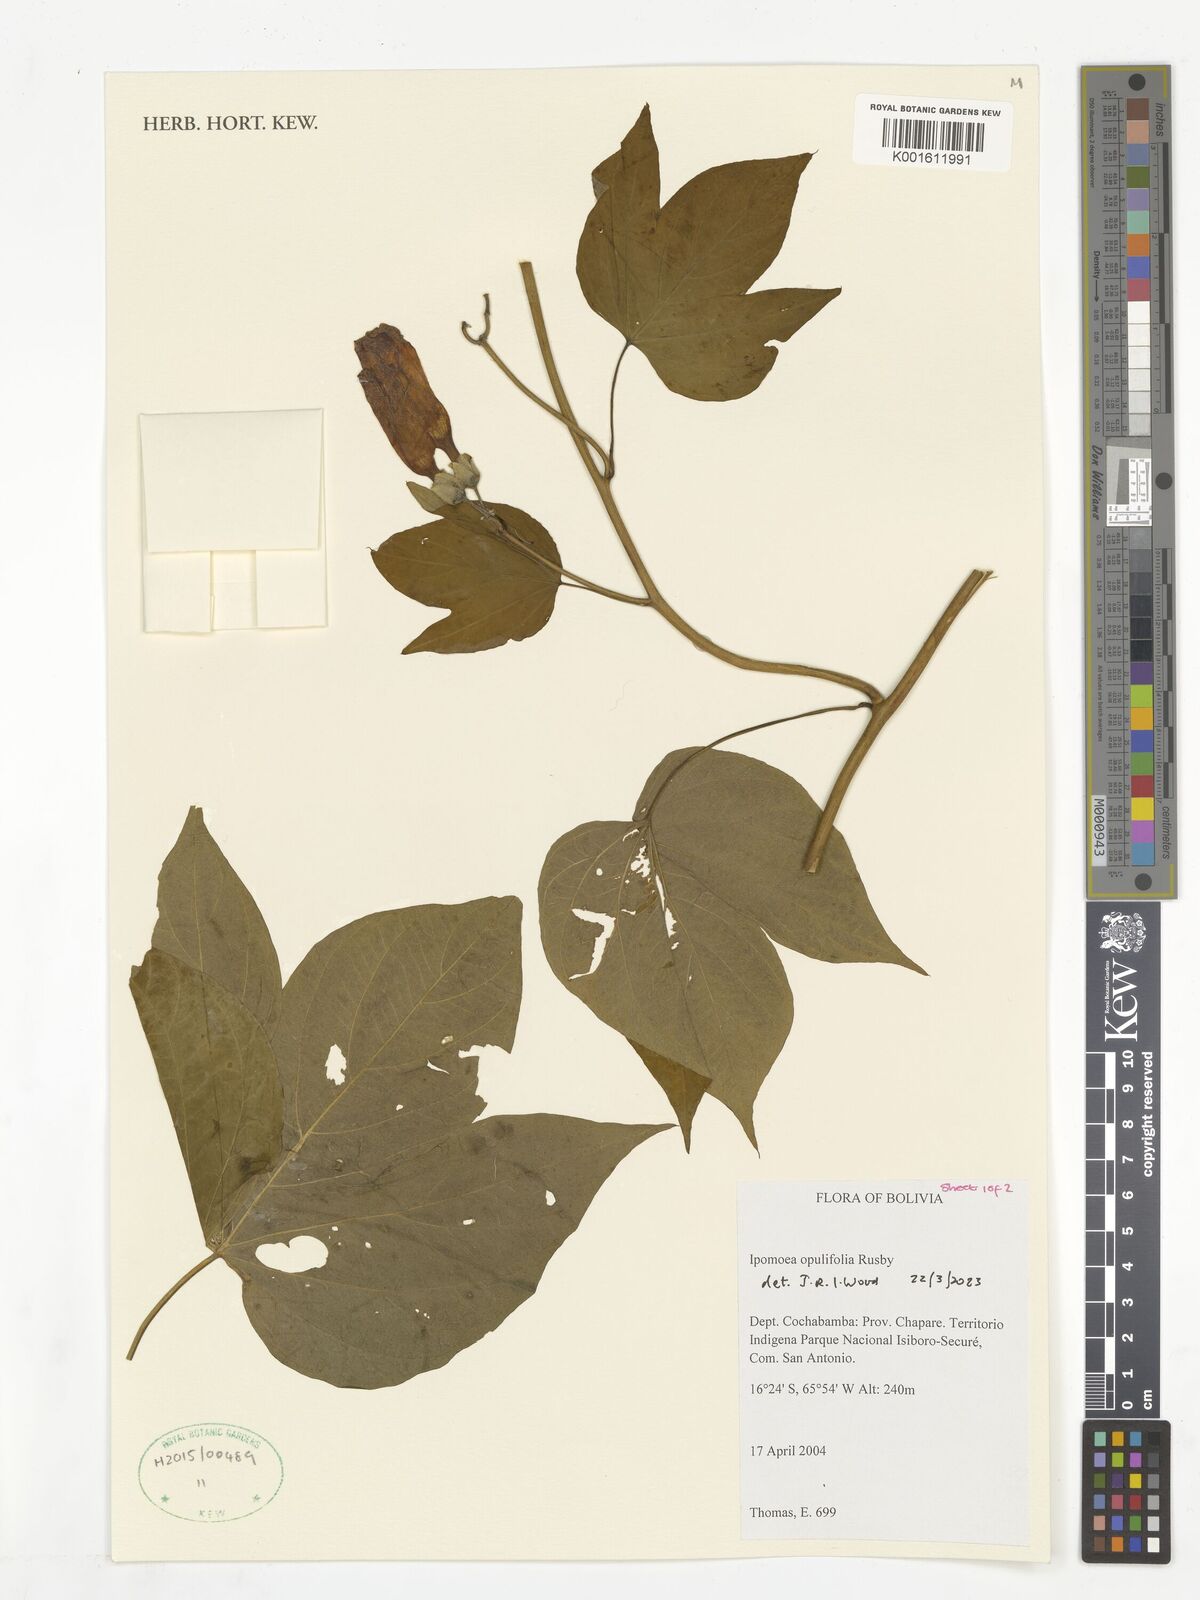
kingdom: Plantae
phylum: Tracheophyta
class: Magnoliopsida
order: Solanales
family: Convolvulaceae
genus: Ipomoea
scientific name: Ipomoea opulifolia
